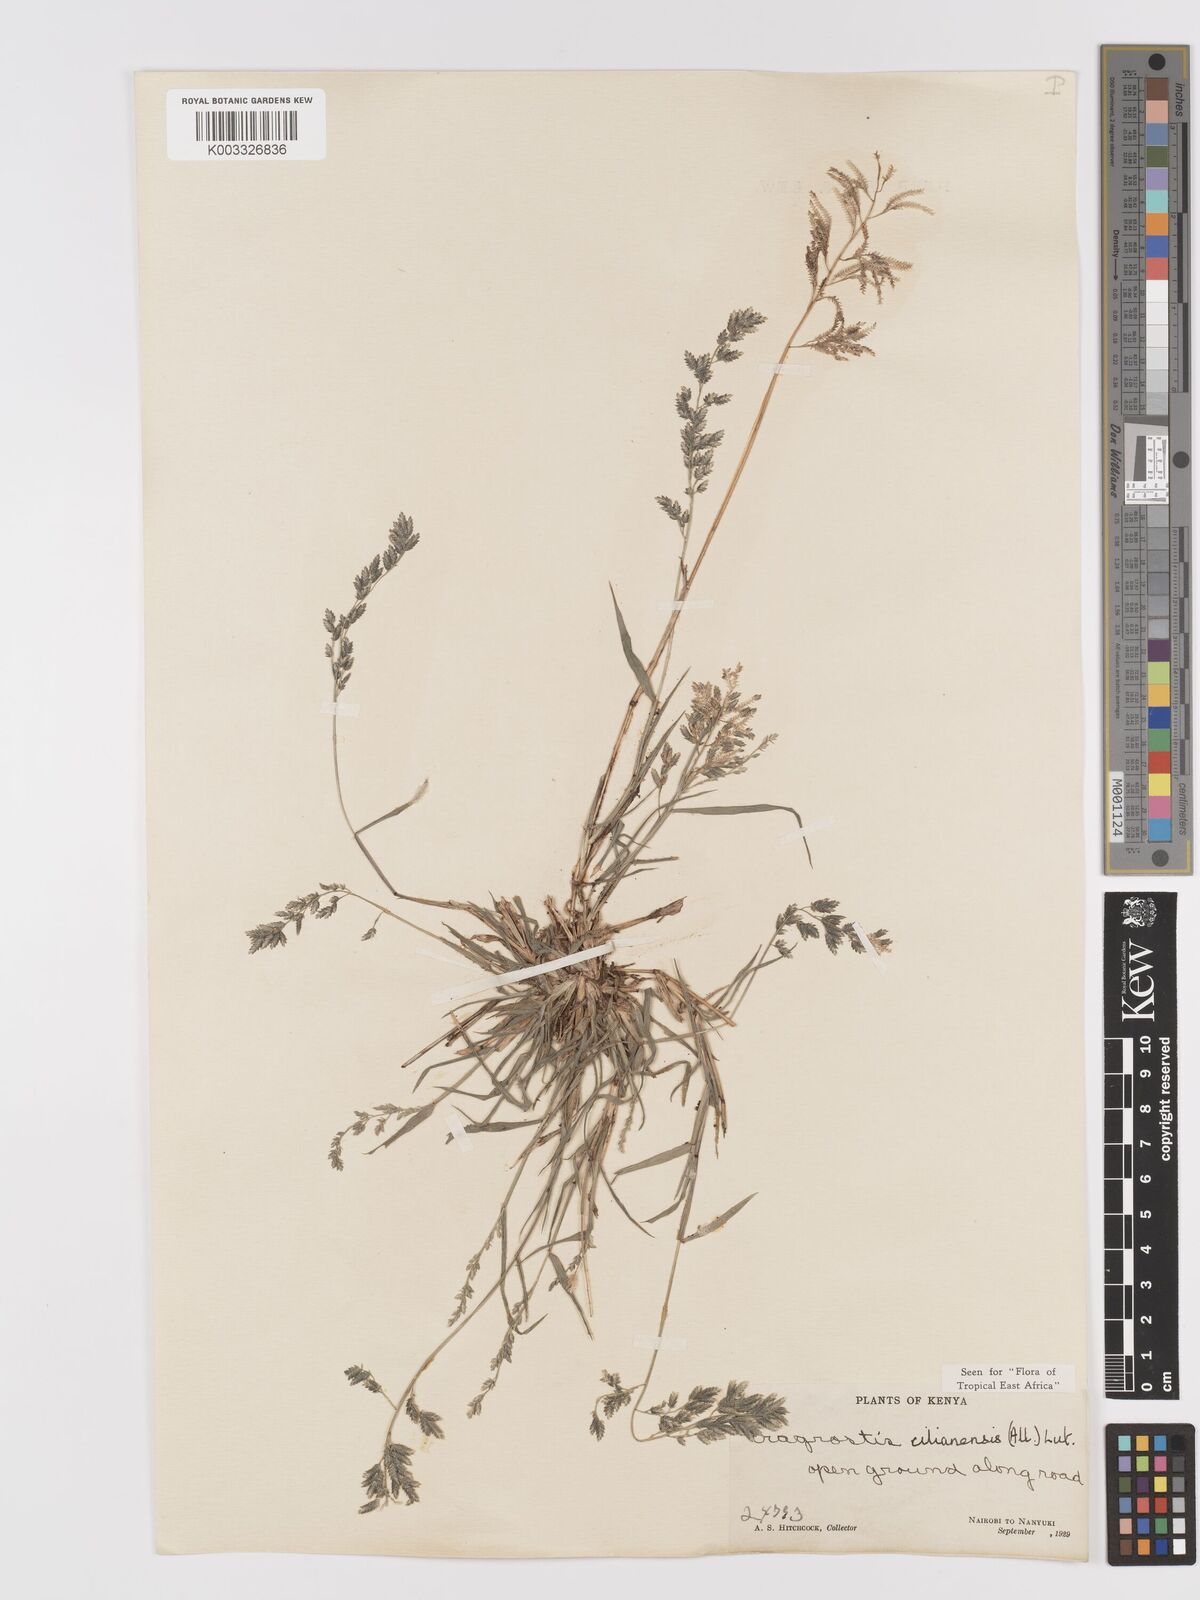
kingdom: Plantae
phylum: Tracheophyta
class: Liliopsida
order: Poales
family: Poaceae
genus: Eragrostis
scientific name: Eragrostis cilianensis
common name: Stinkgrass
